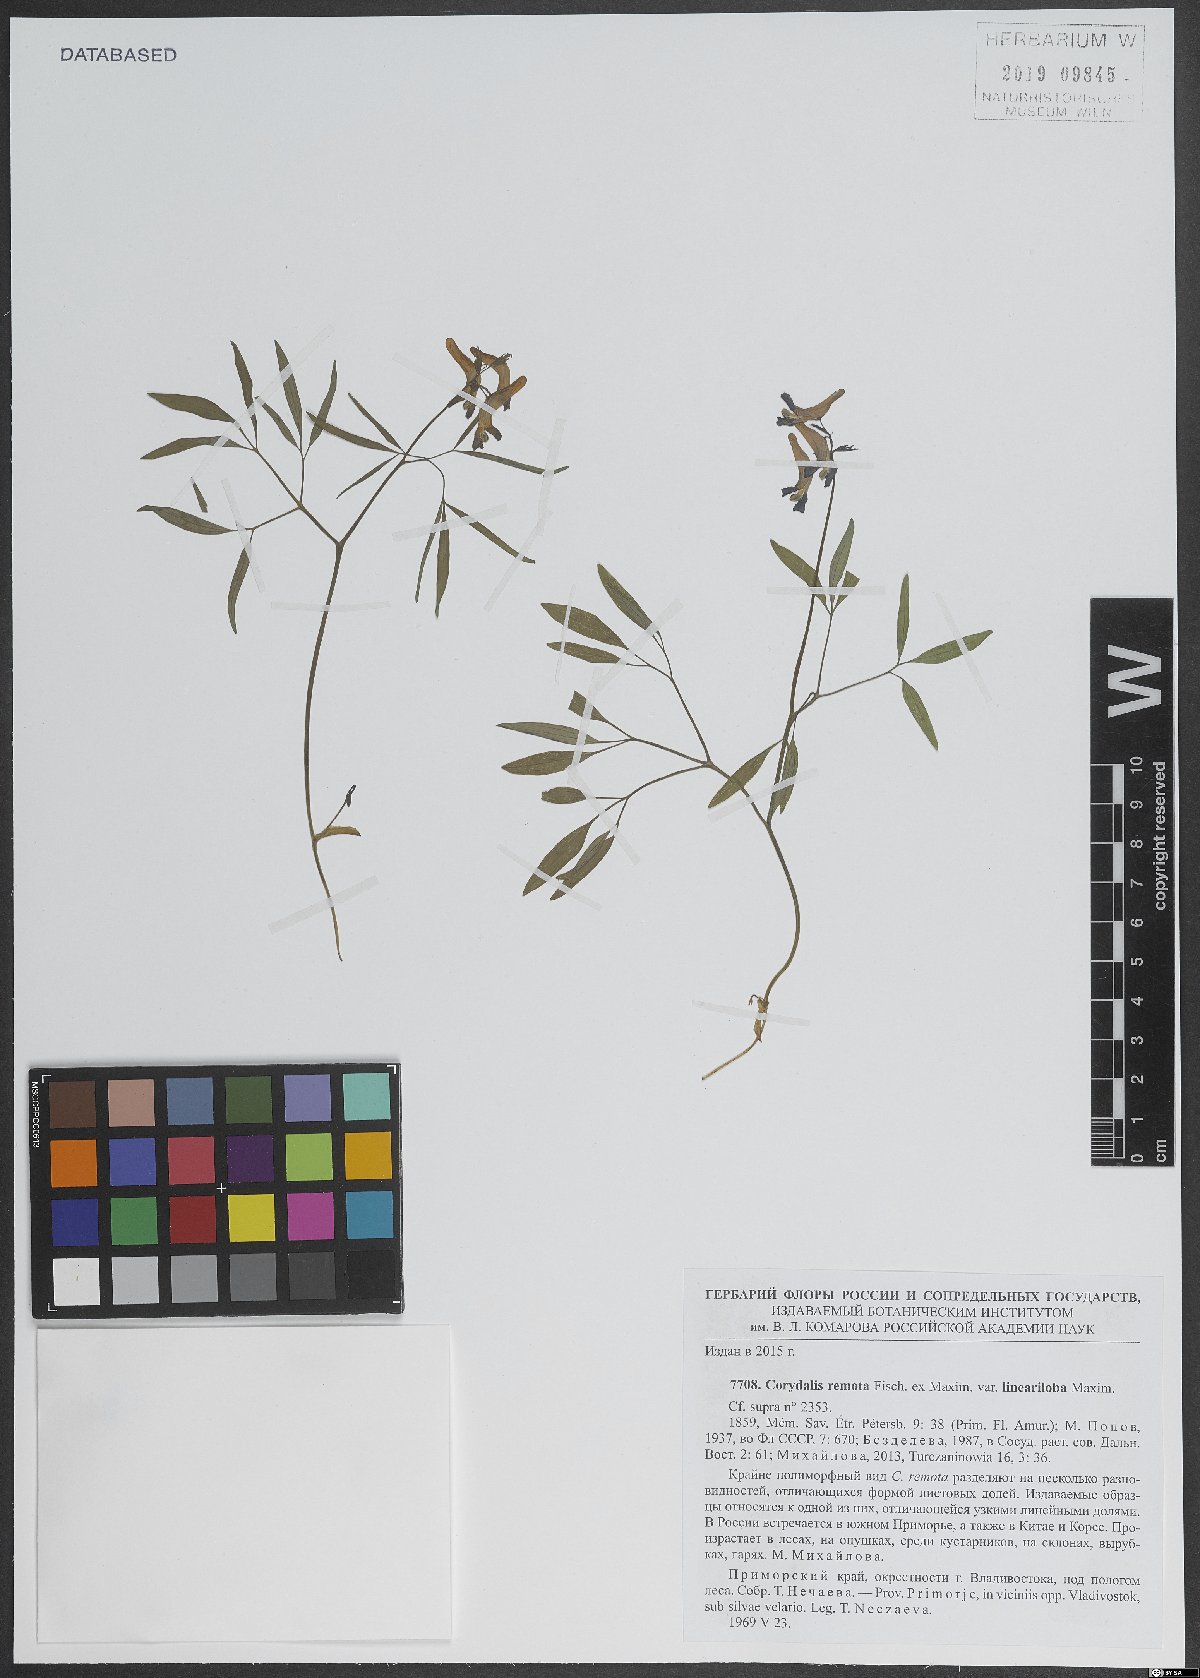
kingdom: Plantae
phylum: Tracheophyta
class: Magnoliopsida
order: Ranunculales
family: Papaveraceae
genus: Corydalis
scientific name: Corydalis turtschaninovii
